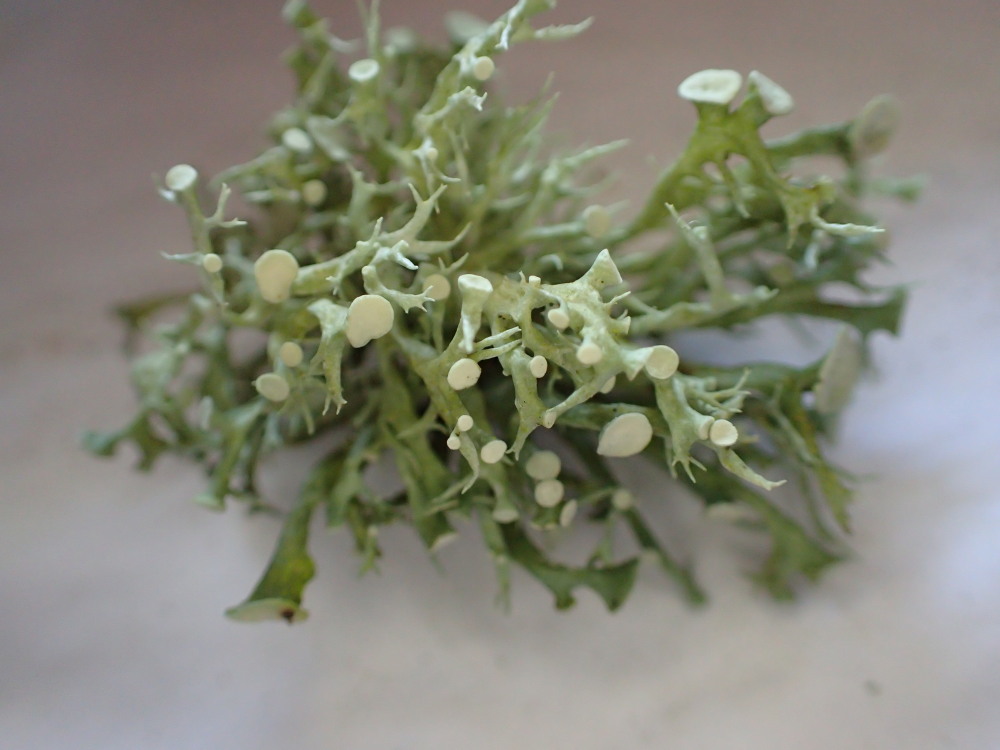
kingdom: Fungi
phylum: Ascomycota
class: Lecanoromycetes
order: Lecanorales
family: Ramalinaceae
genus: Ramalina
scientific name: Ramalina fastigiata
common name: tue-grenlav
